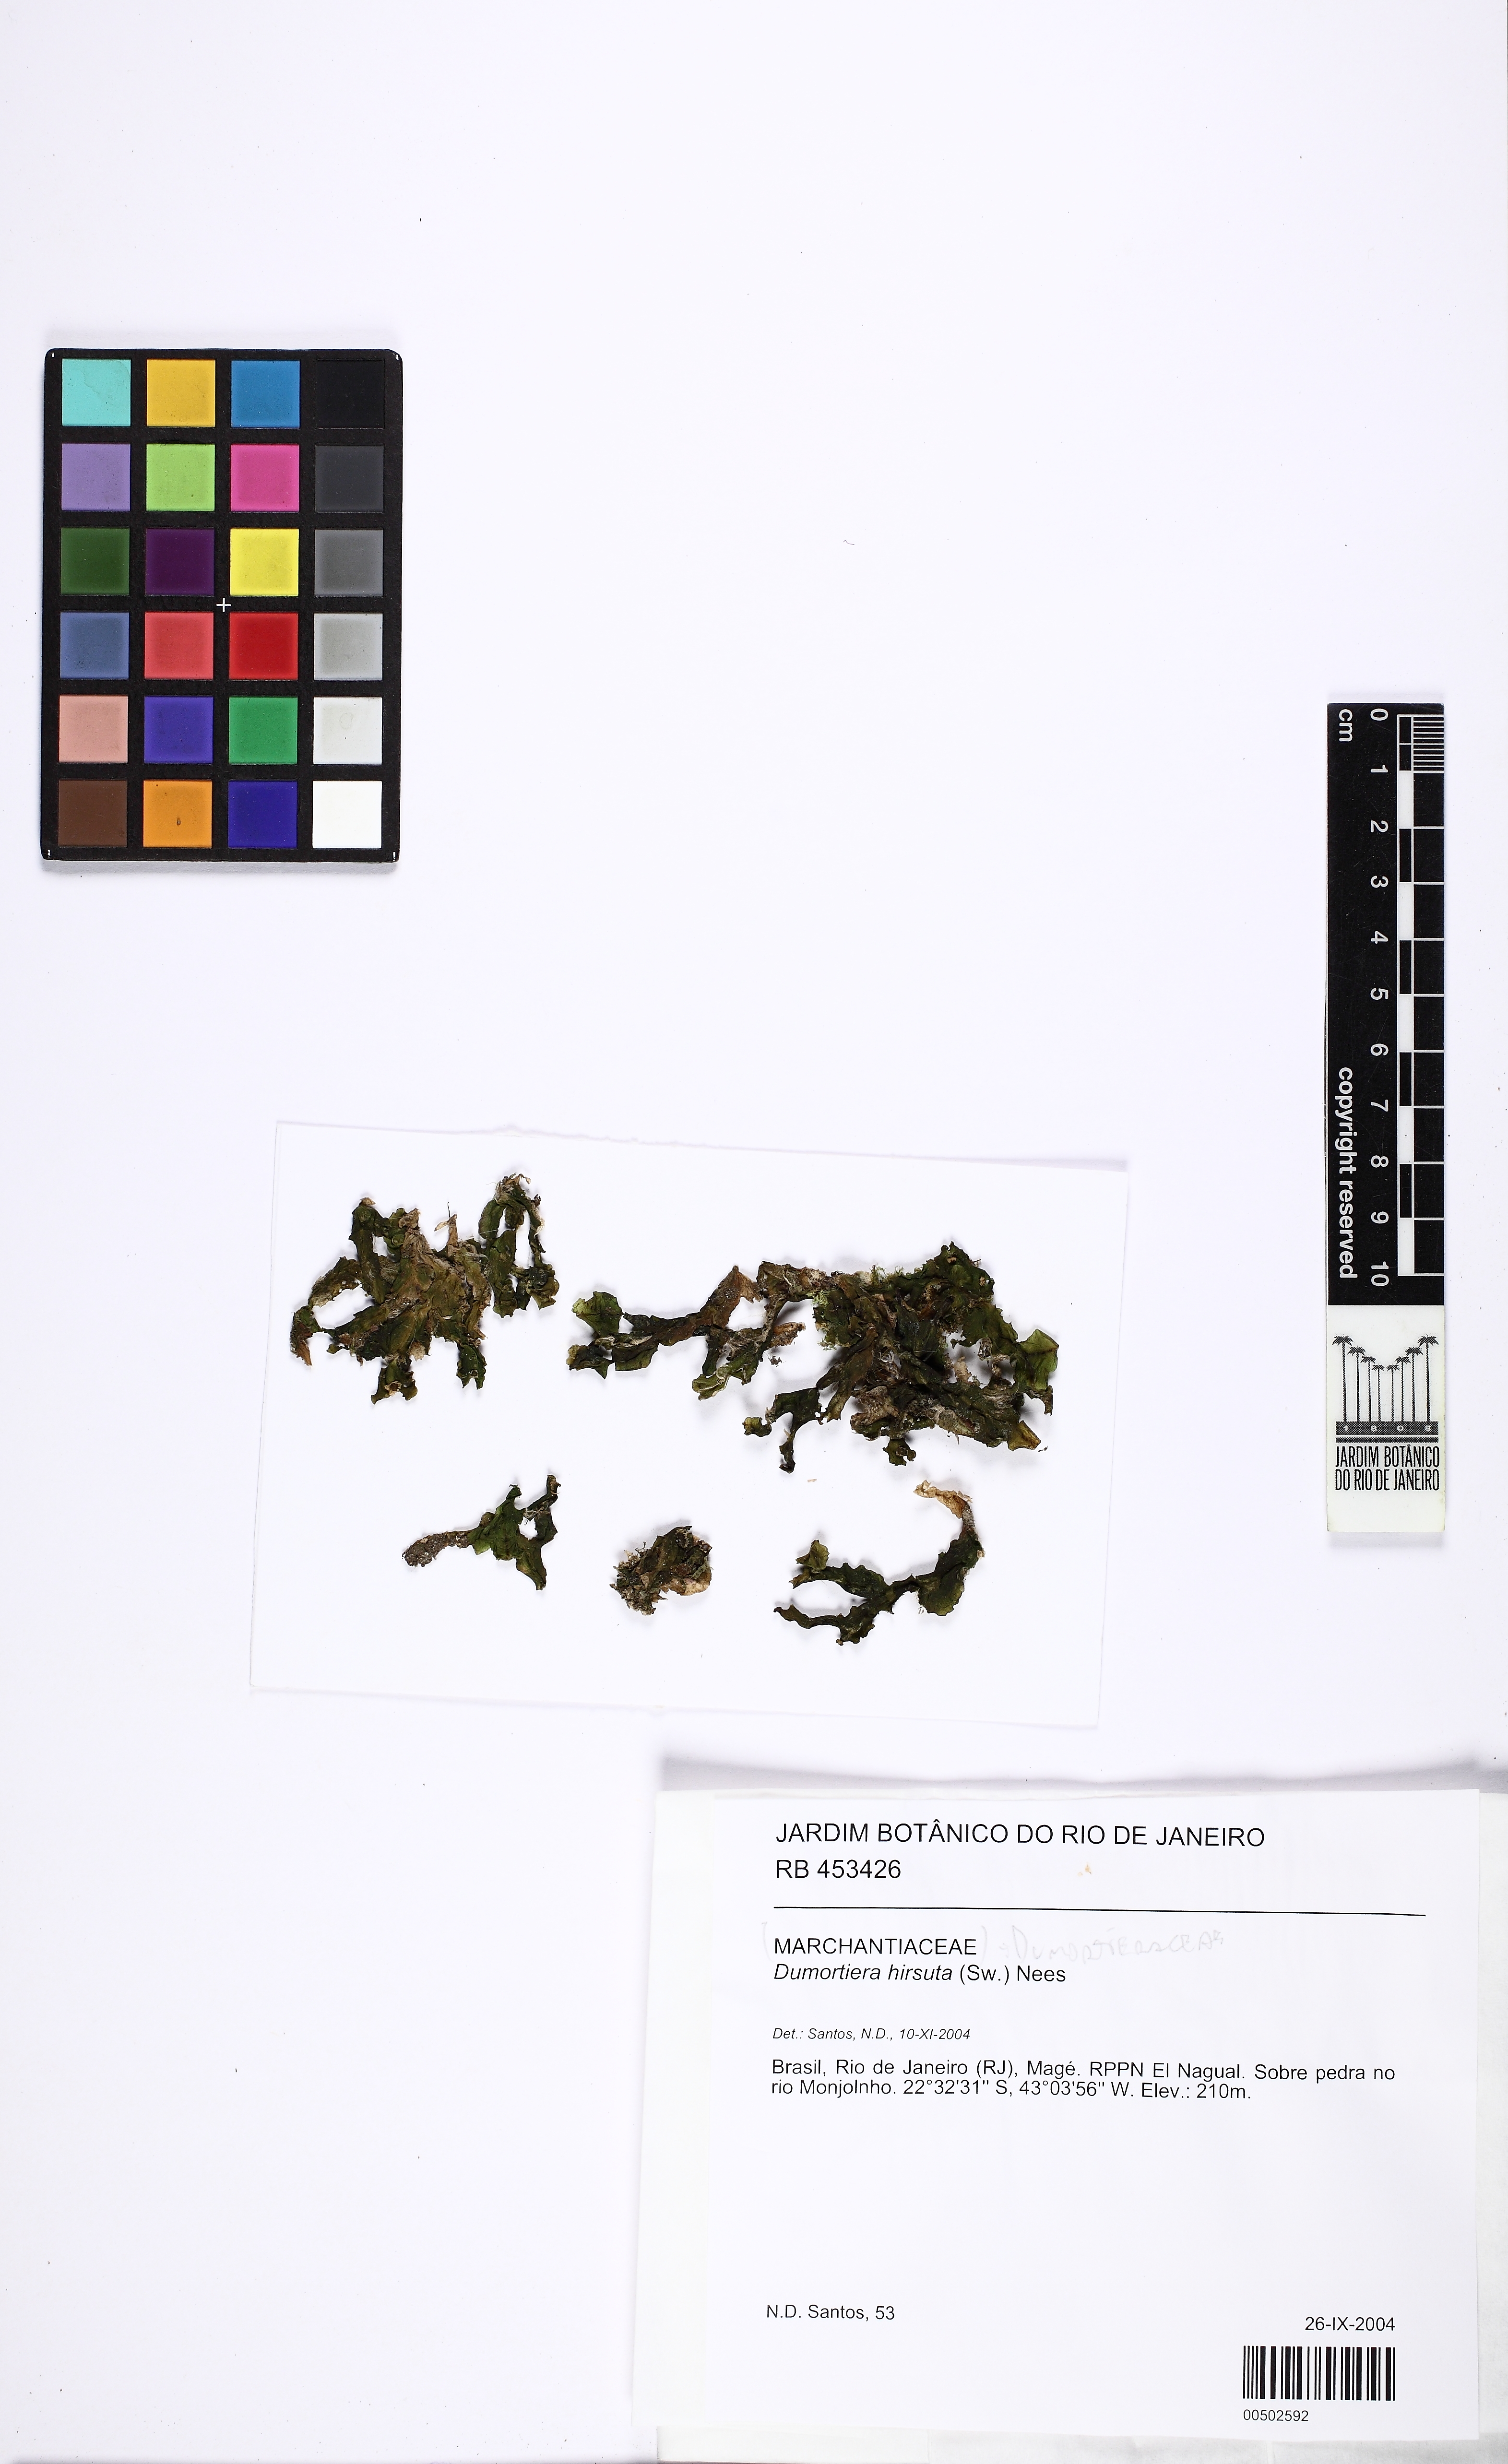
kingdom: Plantae
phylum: Marchantiophyta
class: Marchantiopsida
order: Marchantiales
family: Dumortieraceae
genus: Dumortiera
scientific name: Dumortiera hirsuta
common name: Dumortier's liverwort
